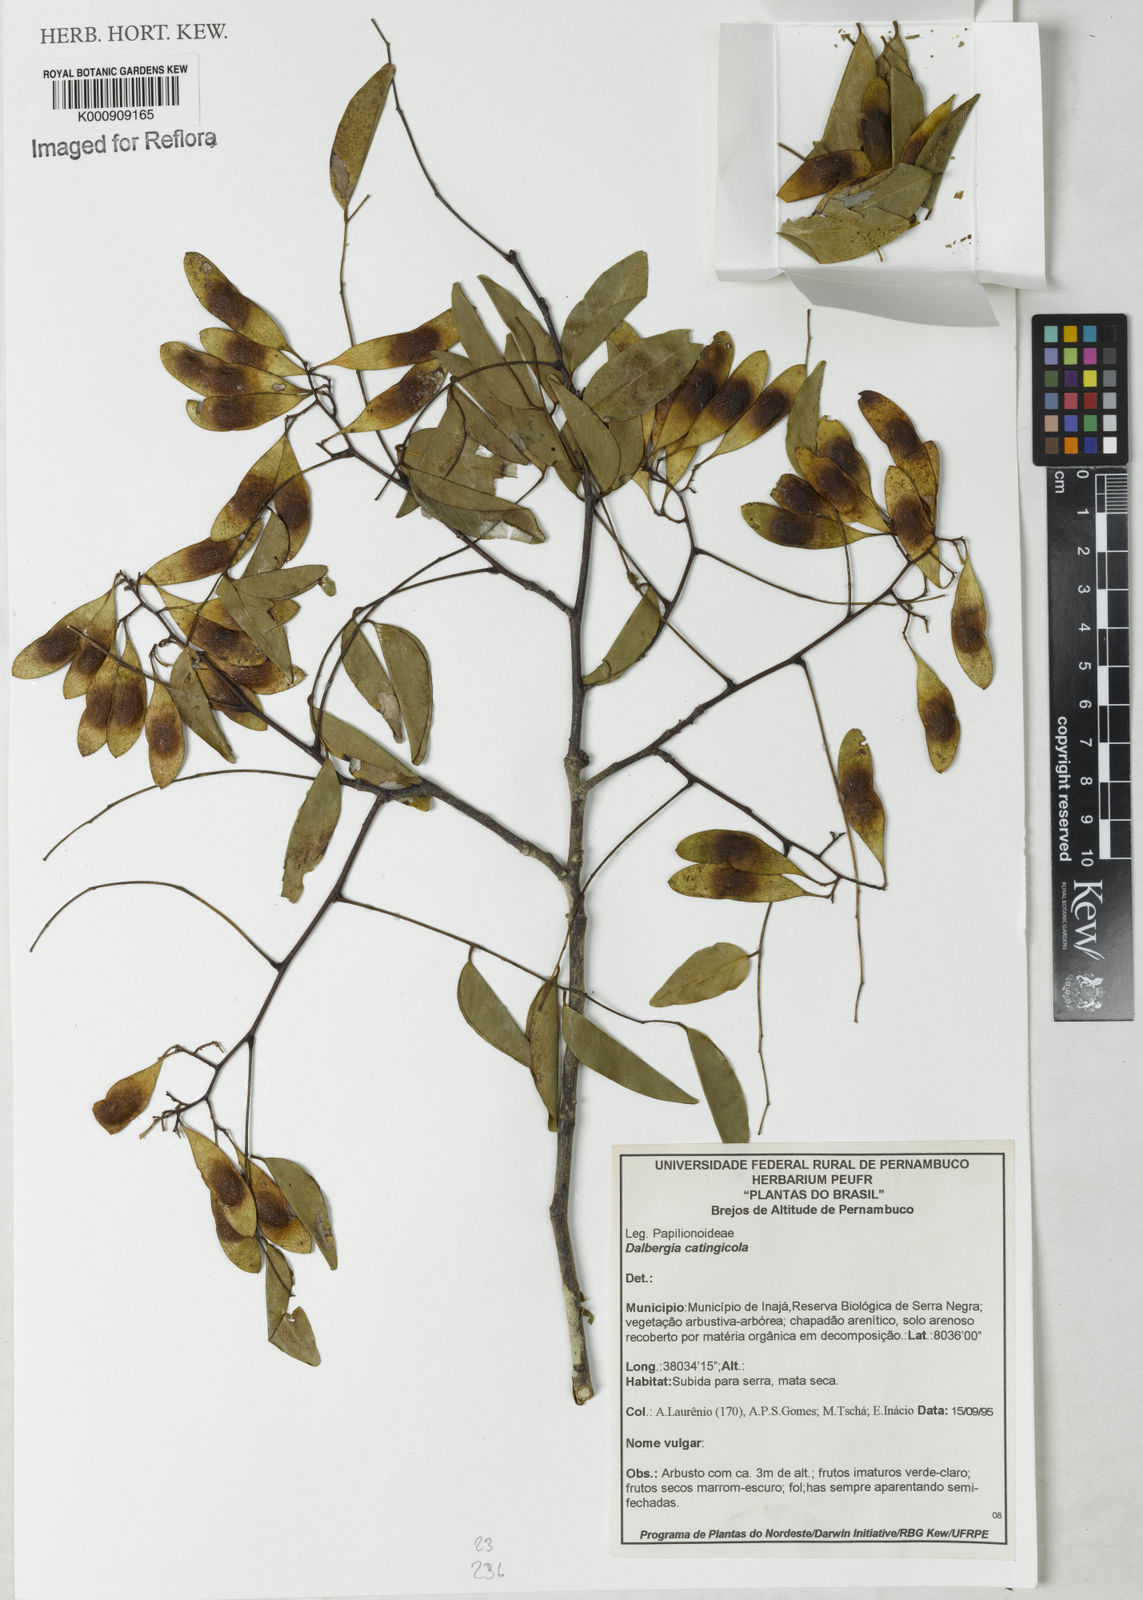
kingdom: Plantae
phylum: Tracheophyta
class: Magnoliopsida
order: Fabales
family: Fabaceae
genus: Dalbergia
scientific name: Dalbergia catingicola
